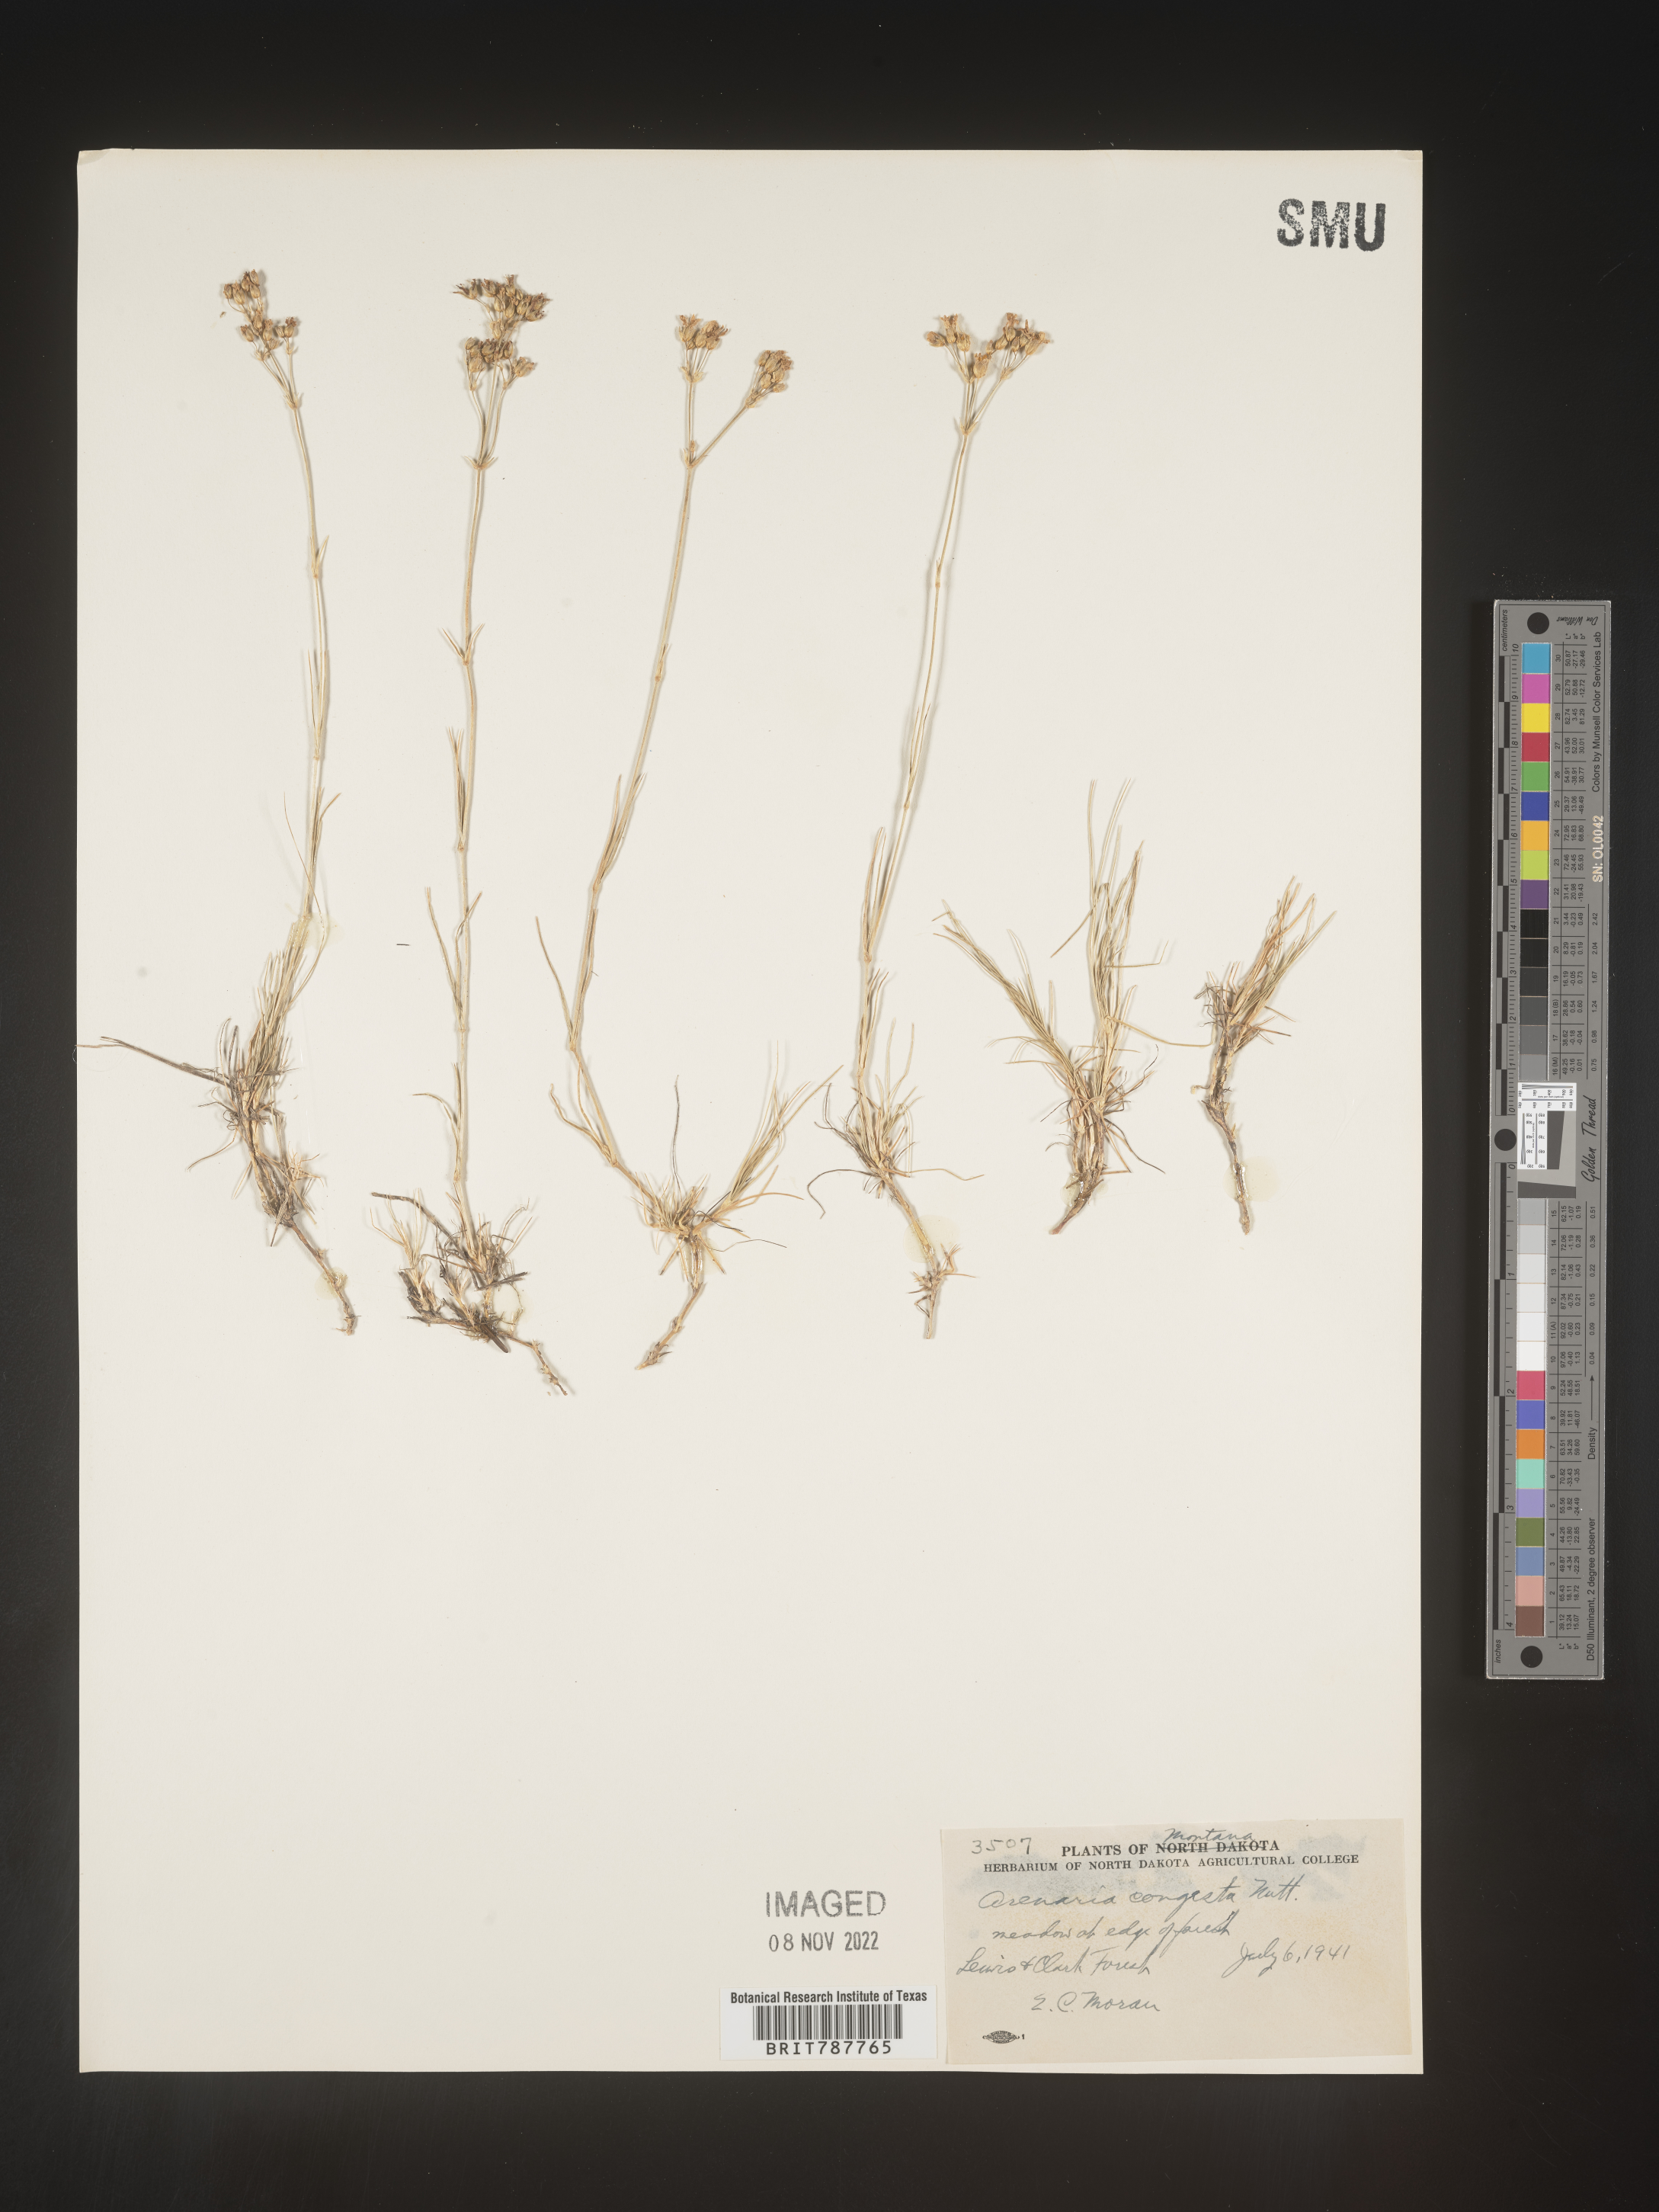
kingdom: Plantae
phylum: Tracheophyta
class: Magnoliopsida
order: Caryophyllales
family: Caryophyllaceae
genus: Eremogone
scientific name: Eremogone congesta
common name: Ballhead sandwort
